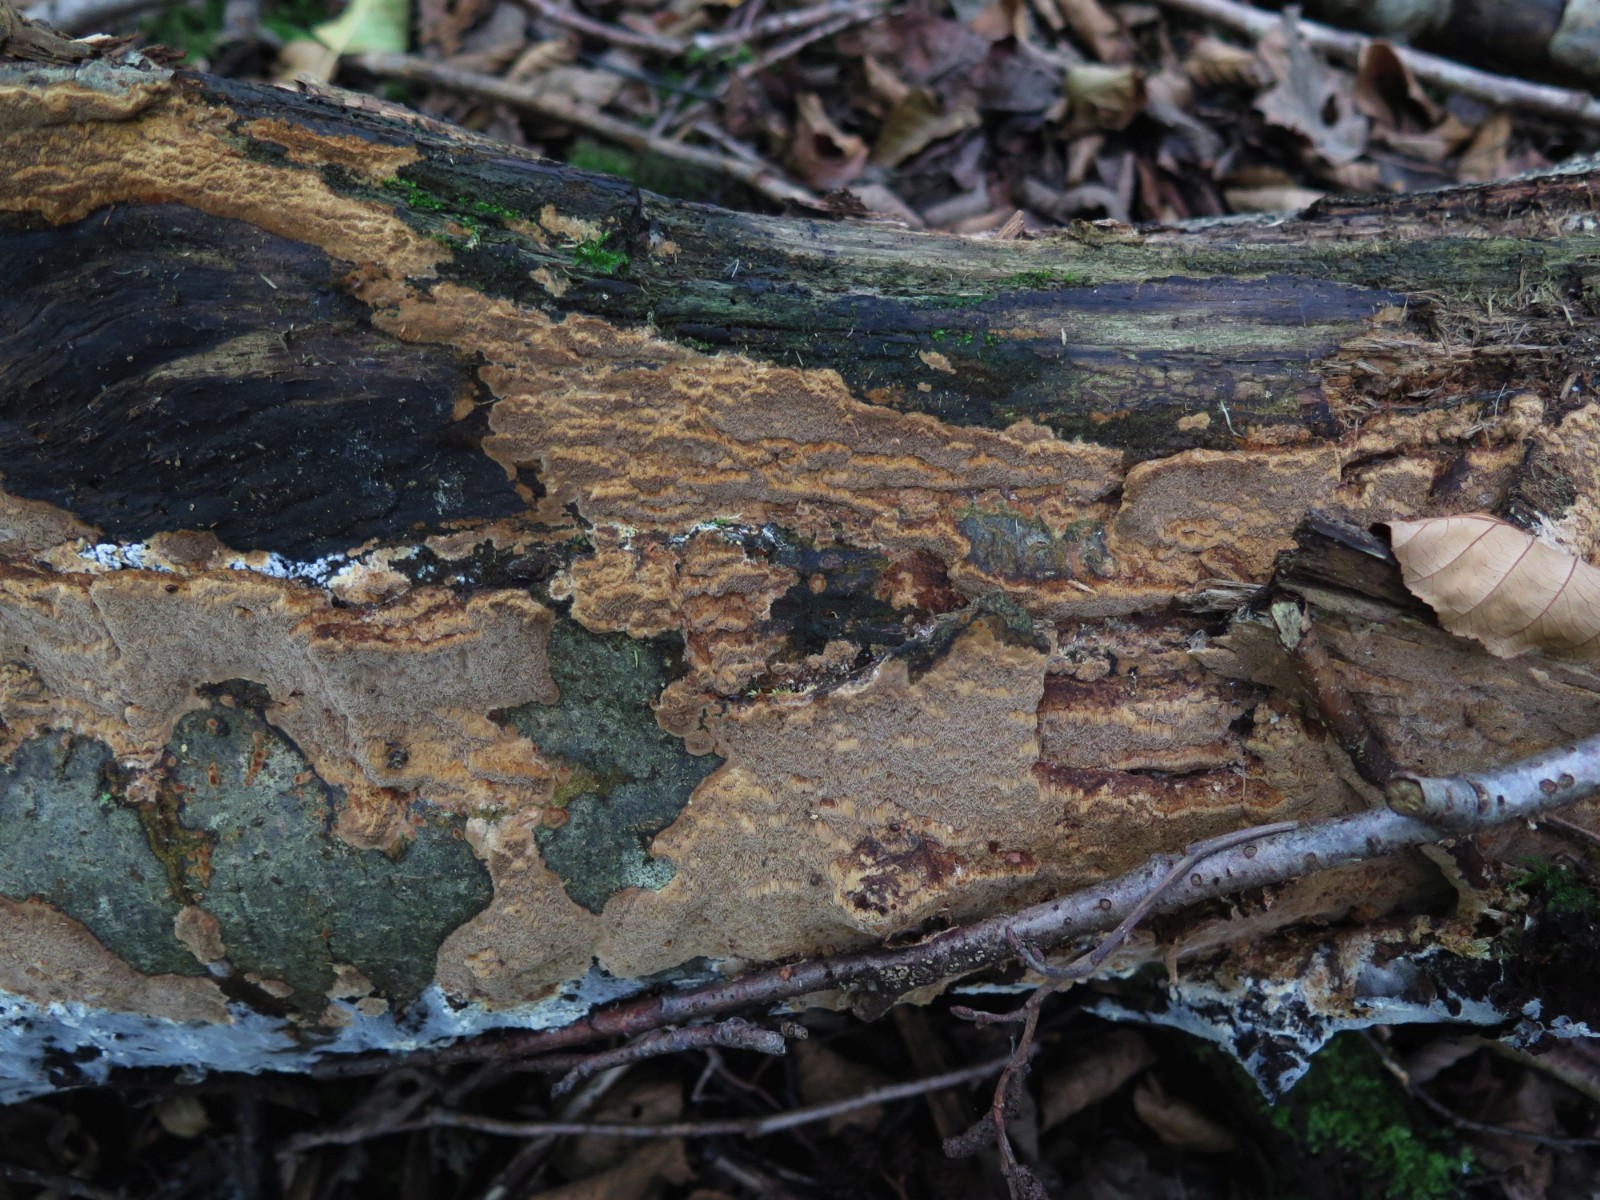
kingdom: Fungi
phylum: Basidiomycota
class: Agaricomycetes
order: Hymenochaetales
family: Hymenochaetaceae
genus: Fuscoporia
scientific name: Fuscoporia ferruginosa
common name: rustbrun ildporesvamp
